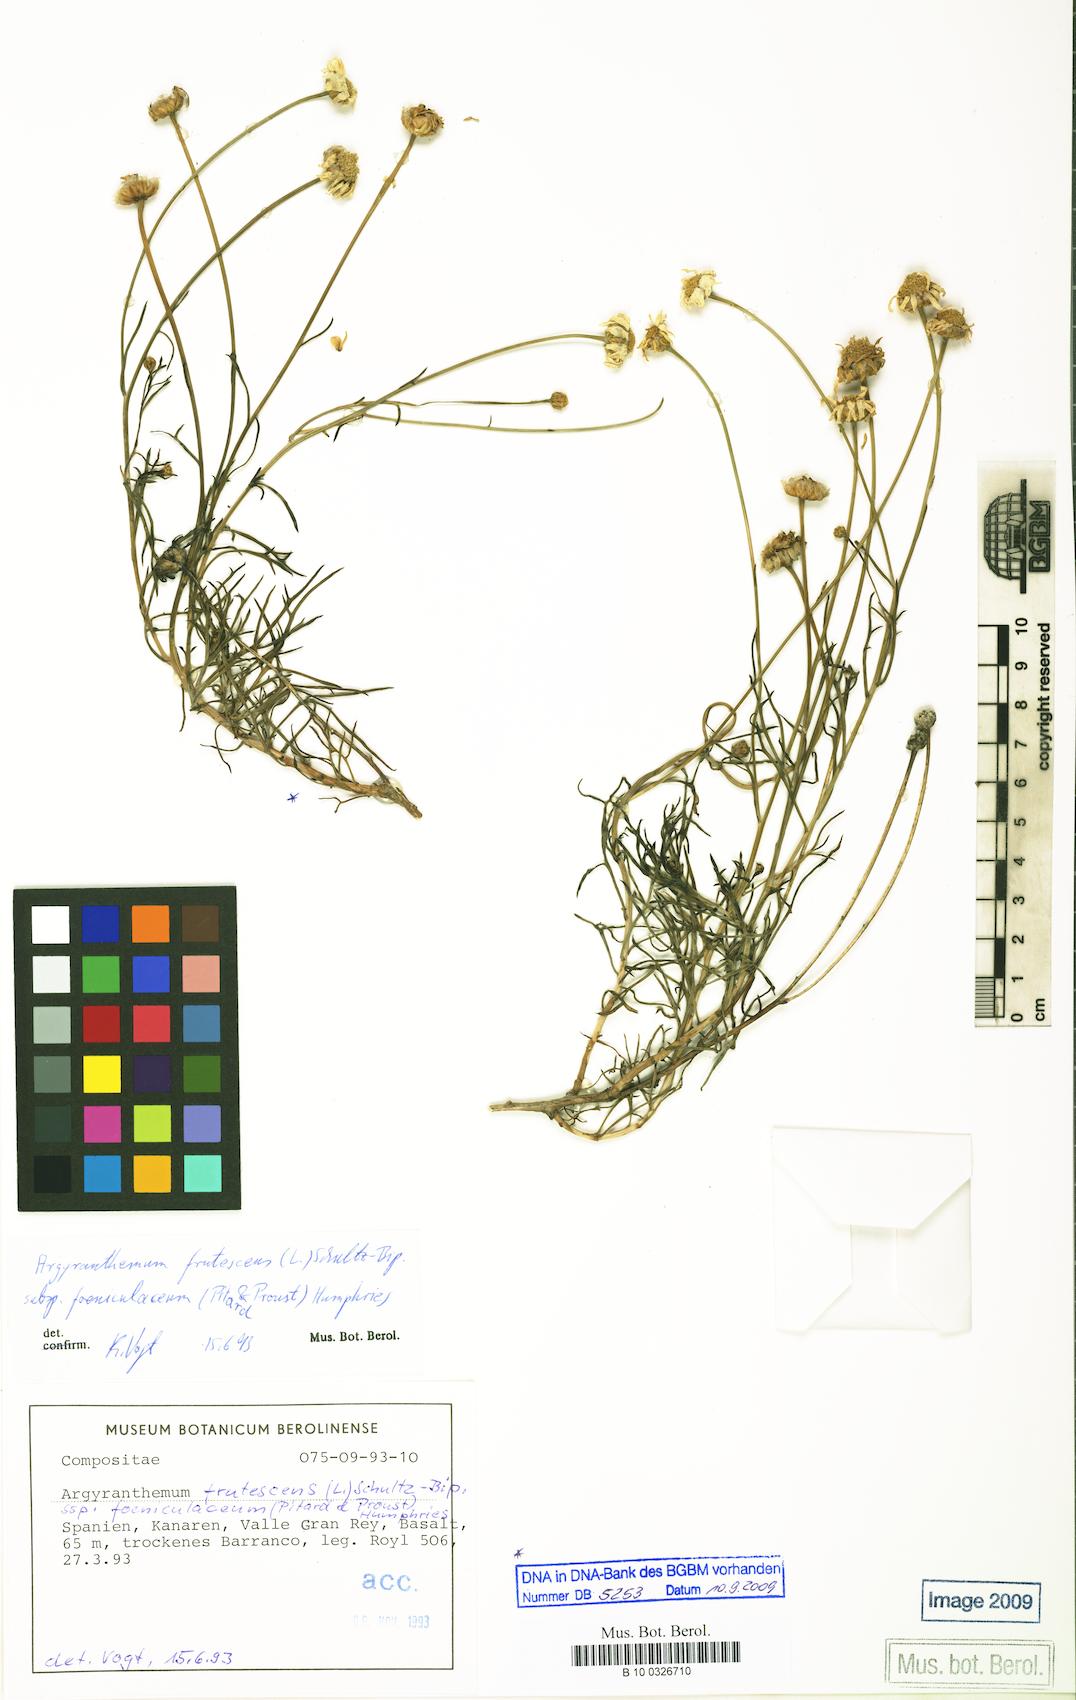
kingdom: Plantae
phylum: Tracheophyta
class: Magnoliopsida
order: Asterales
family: Asteraceae
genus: Argyranthemum
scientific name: Argyranthemum frutescens
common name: Paris daisy
